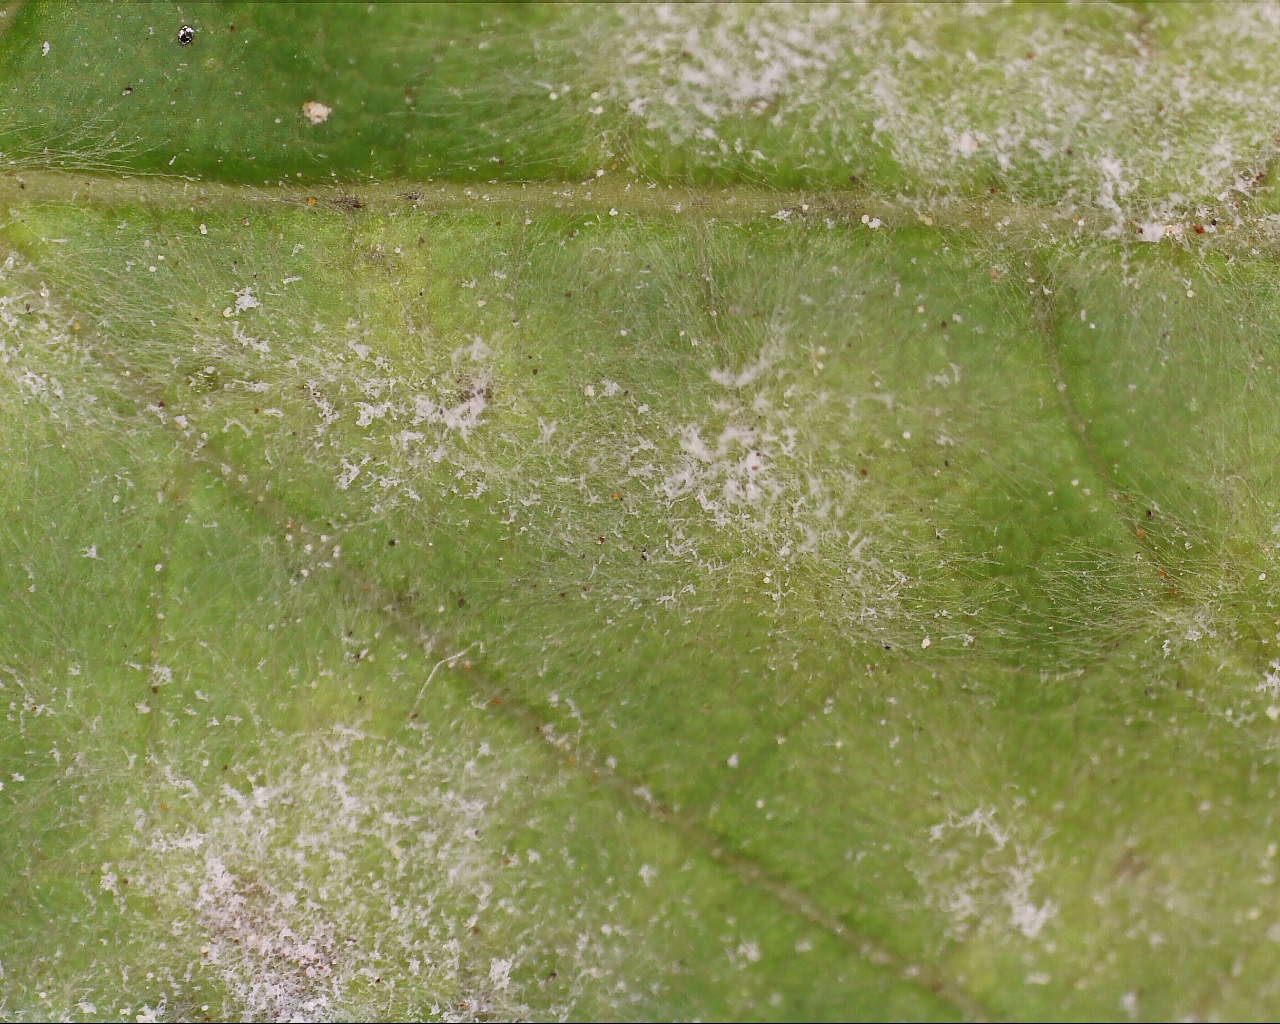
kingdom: Fungi
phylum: Ascomycota
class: Leotiomycetes
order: Helotiales
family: Erysiphaceae
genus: Sawadaea
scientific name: Sawadaea bicornis
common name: Maple mildew
